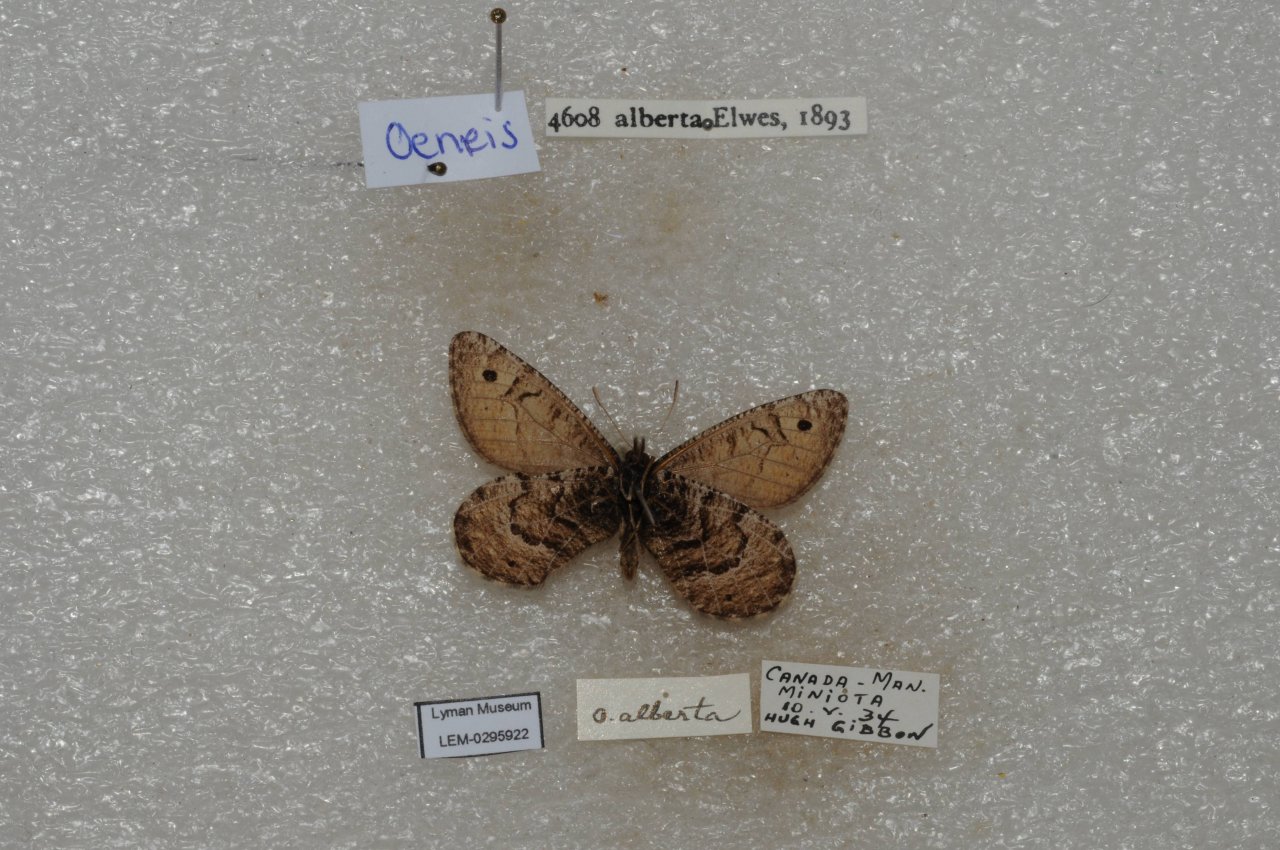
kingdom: Animalia
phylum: Arthropoda
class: Insecta
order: Lepidoptera
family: Nymphalidae
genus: Oeneis
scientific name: Oeneis alberta
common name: Alberta Arctic
